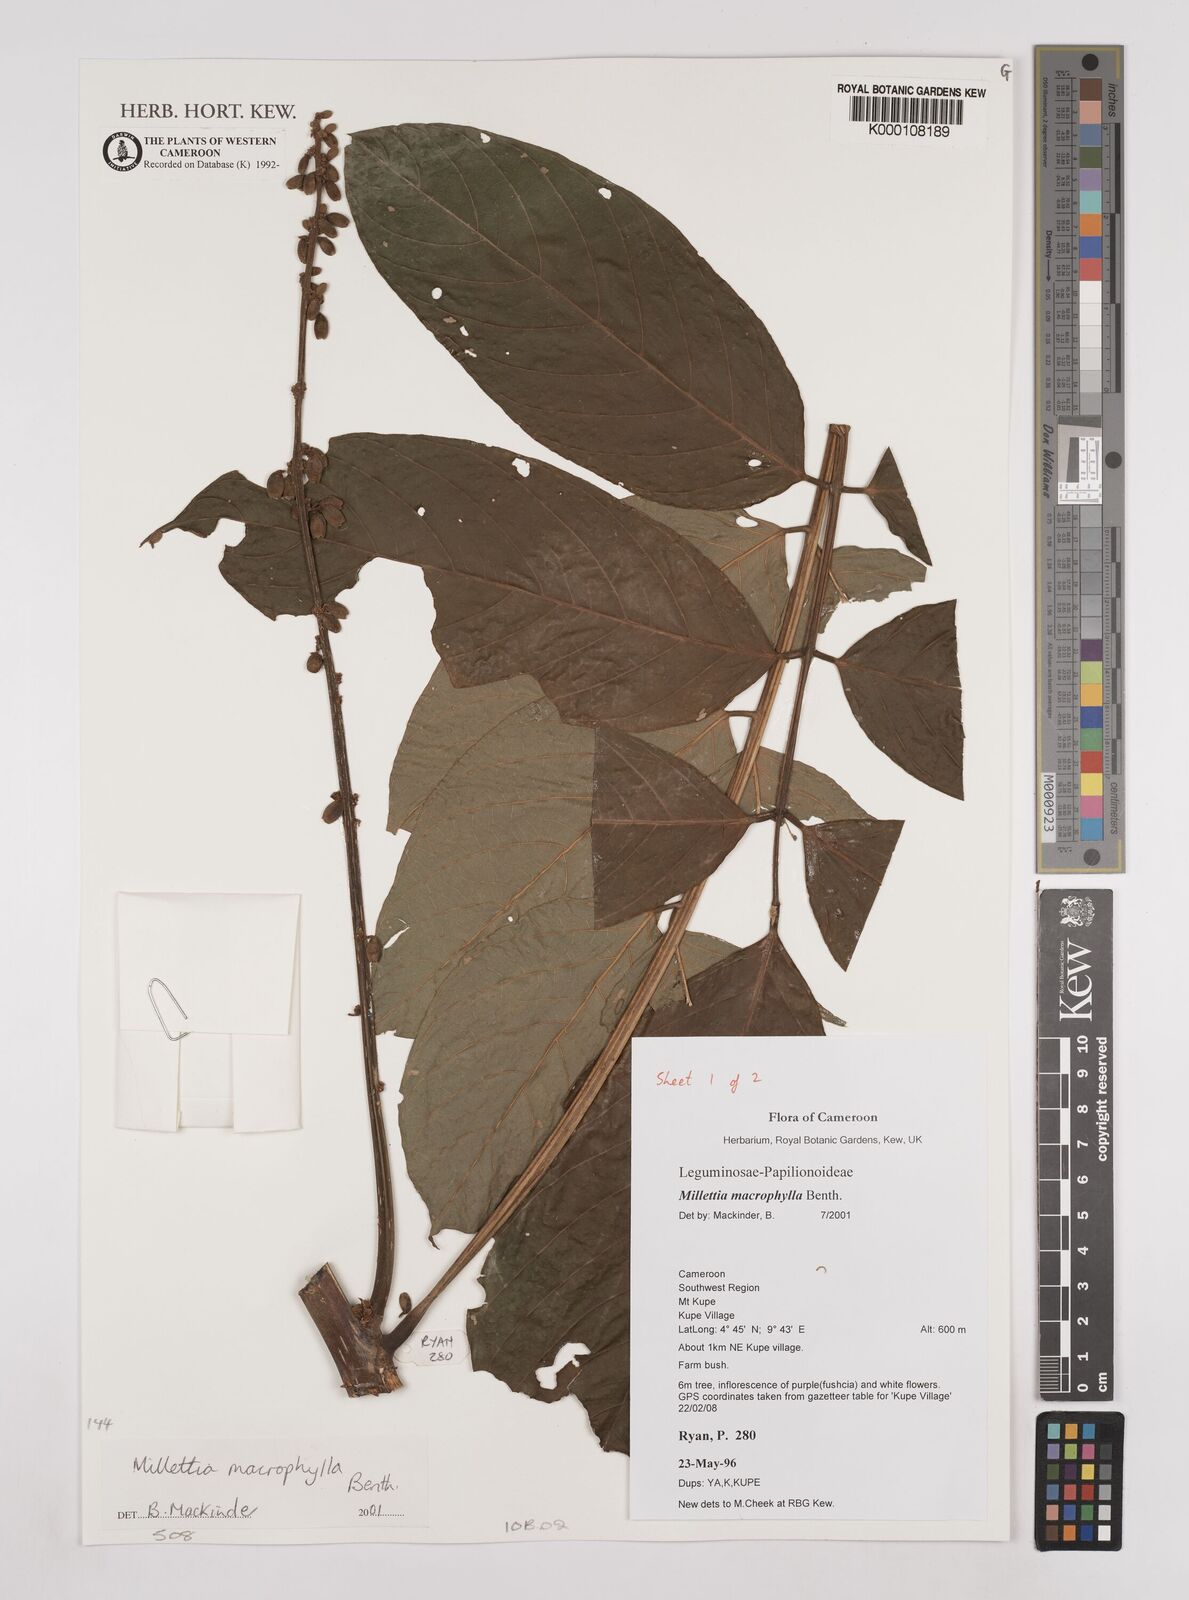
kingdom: Plantae
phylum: Tracheophyta
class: Magnoliopsida
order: Fabales
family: Fabaceae
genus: Millettia
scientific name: Millettia macrophylla
